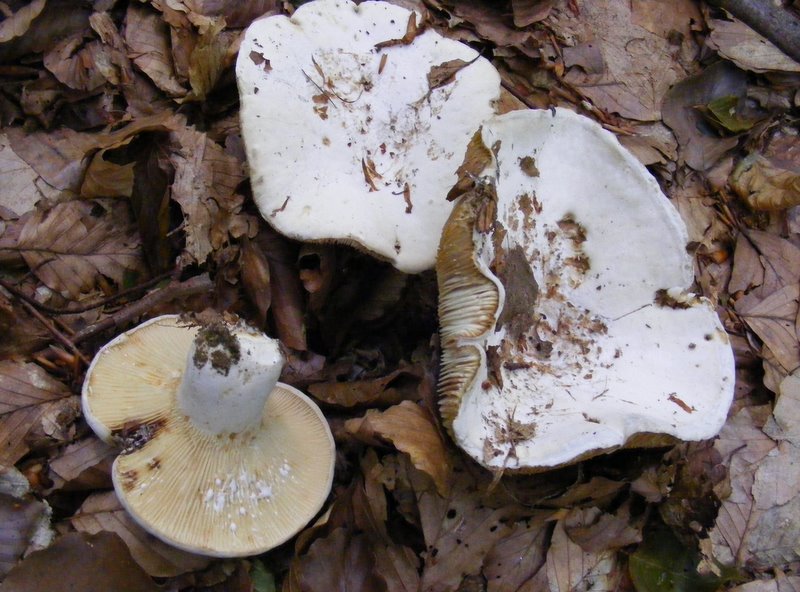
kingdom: Fungi
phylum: Basidiomycota
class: Agaricomycetes
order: Russulales
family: Russulaceae
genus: Lactifluus
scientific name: Lactifluus vellereus
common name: hvidfiltet mælkehat
